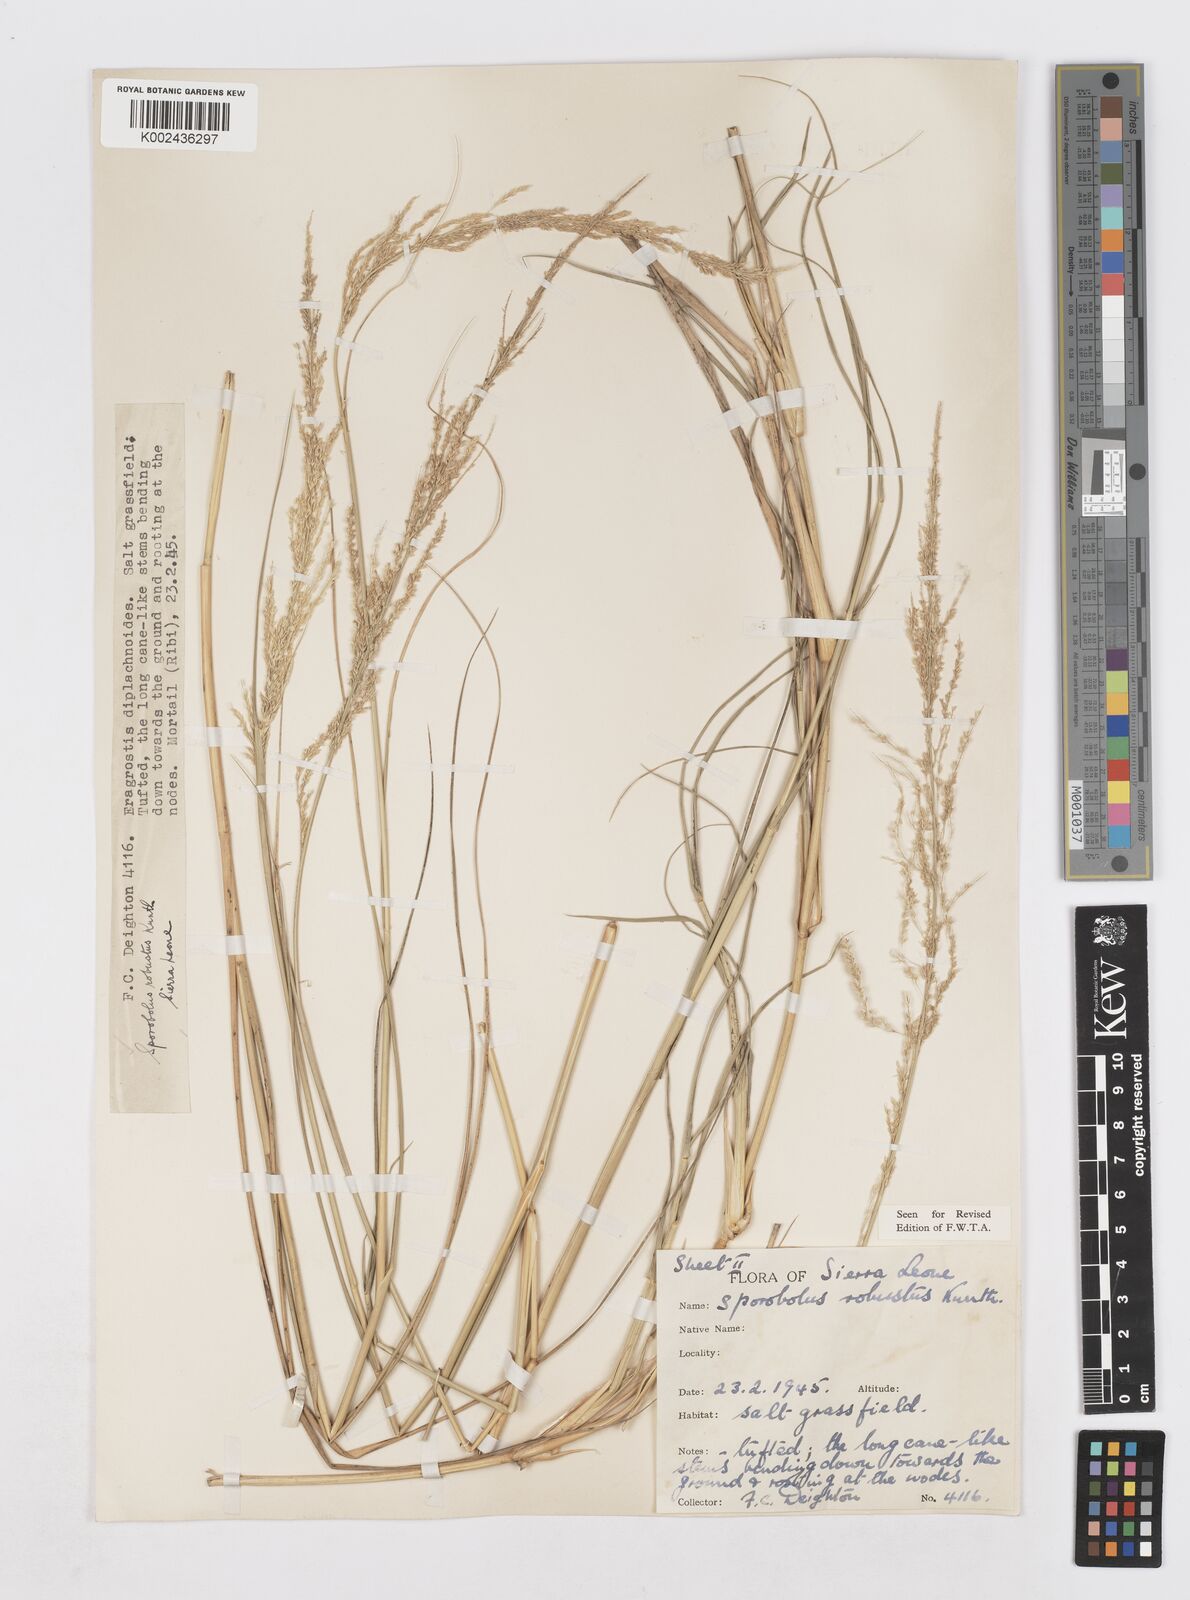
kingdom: Plantae
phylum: Tracheophyta
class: Liliopsida
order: Poales
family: Poaceae
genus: Sporobolus
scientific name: Sporobolus robustus
